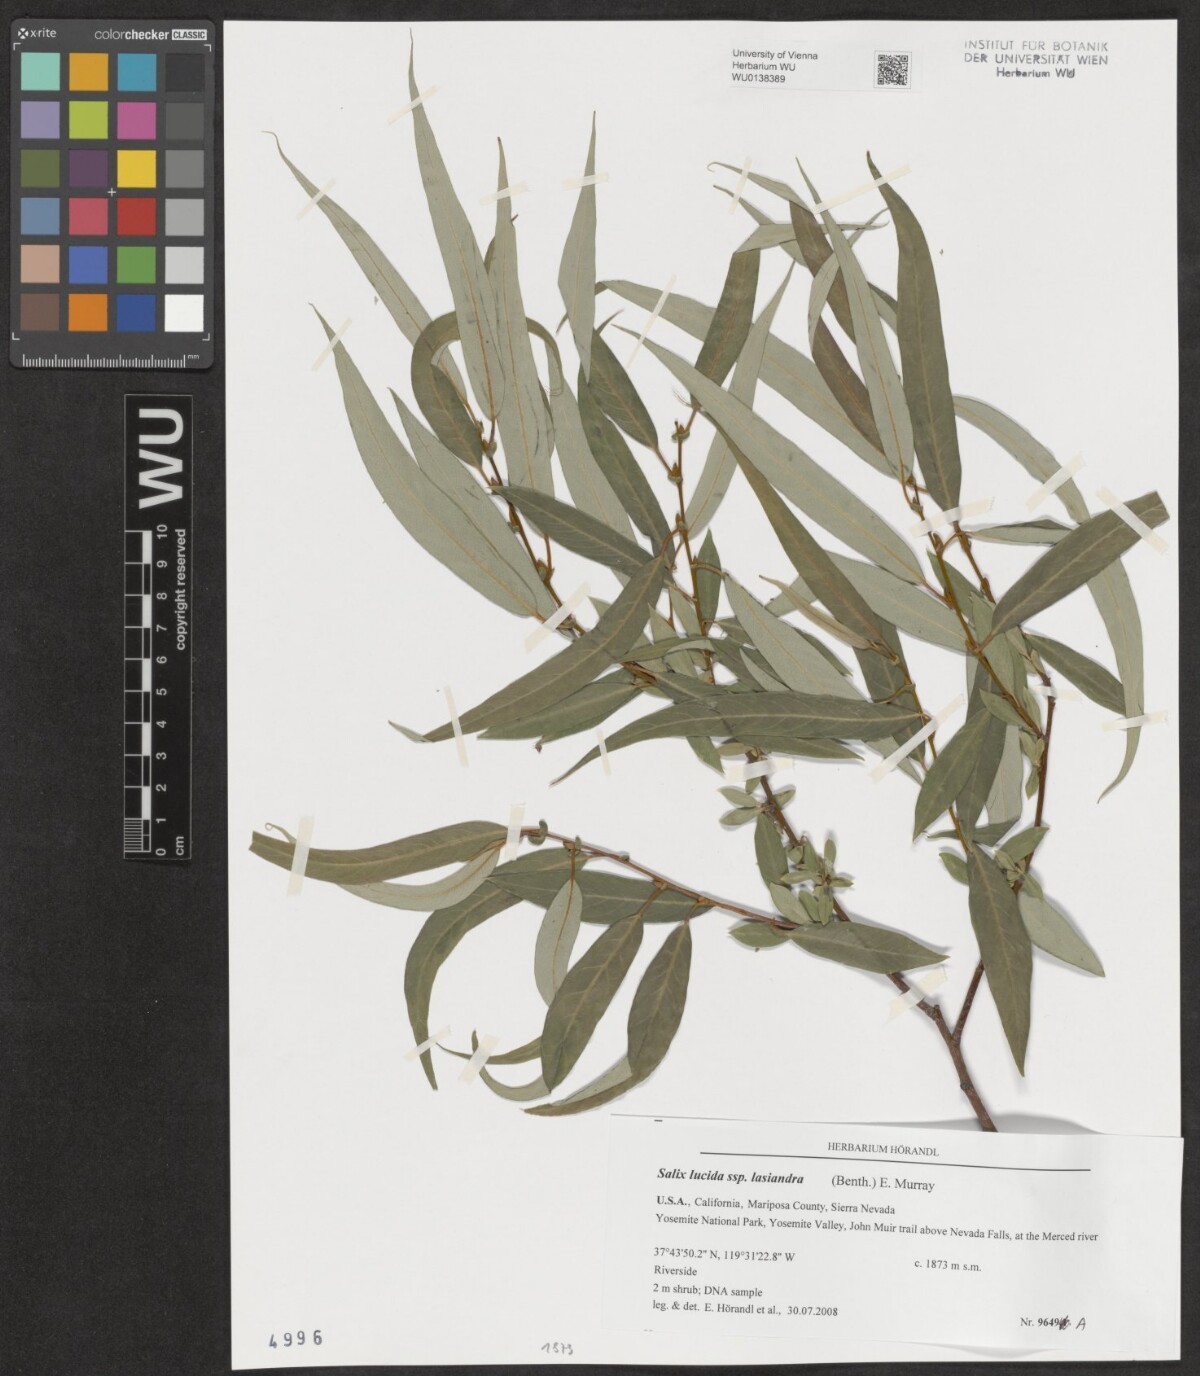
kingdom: Plantae
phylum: Tracheophyta
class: Magnoliopsida
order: Malpighiales
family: Salicaceae
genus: Salix
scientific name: Salix lucida
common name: Shining willow
